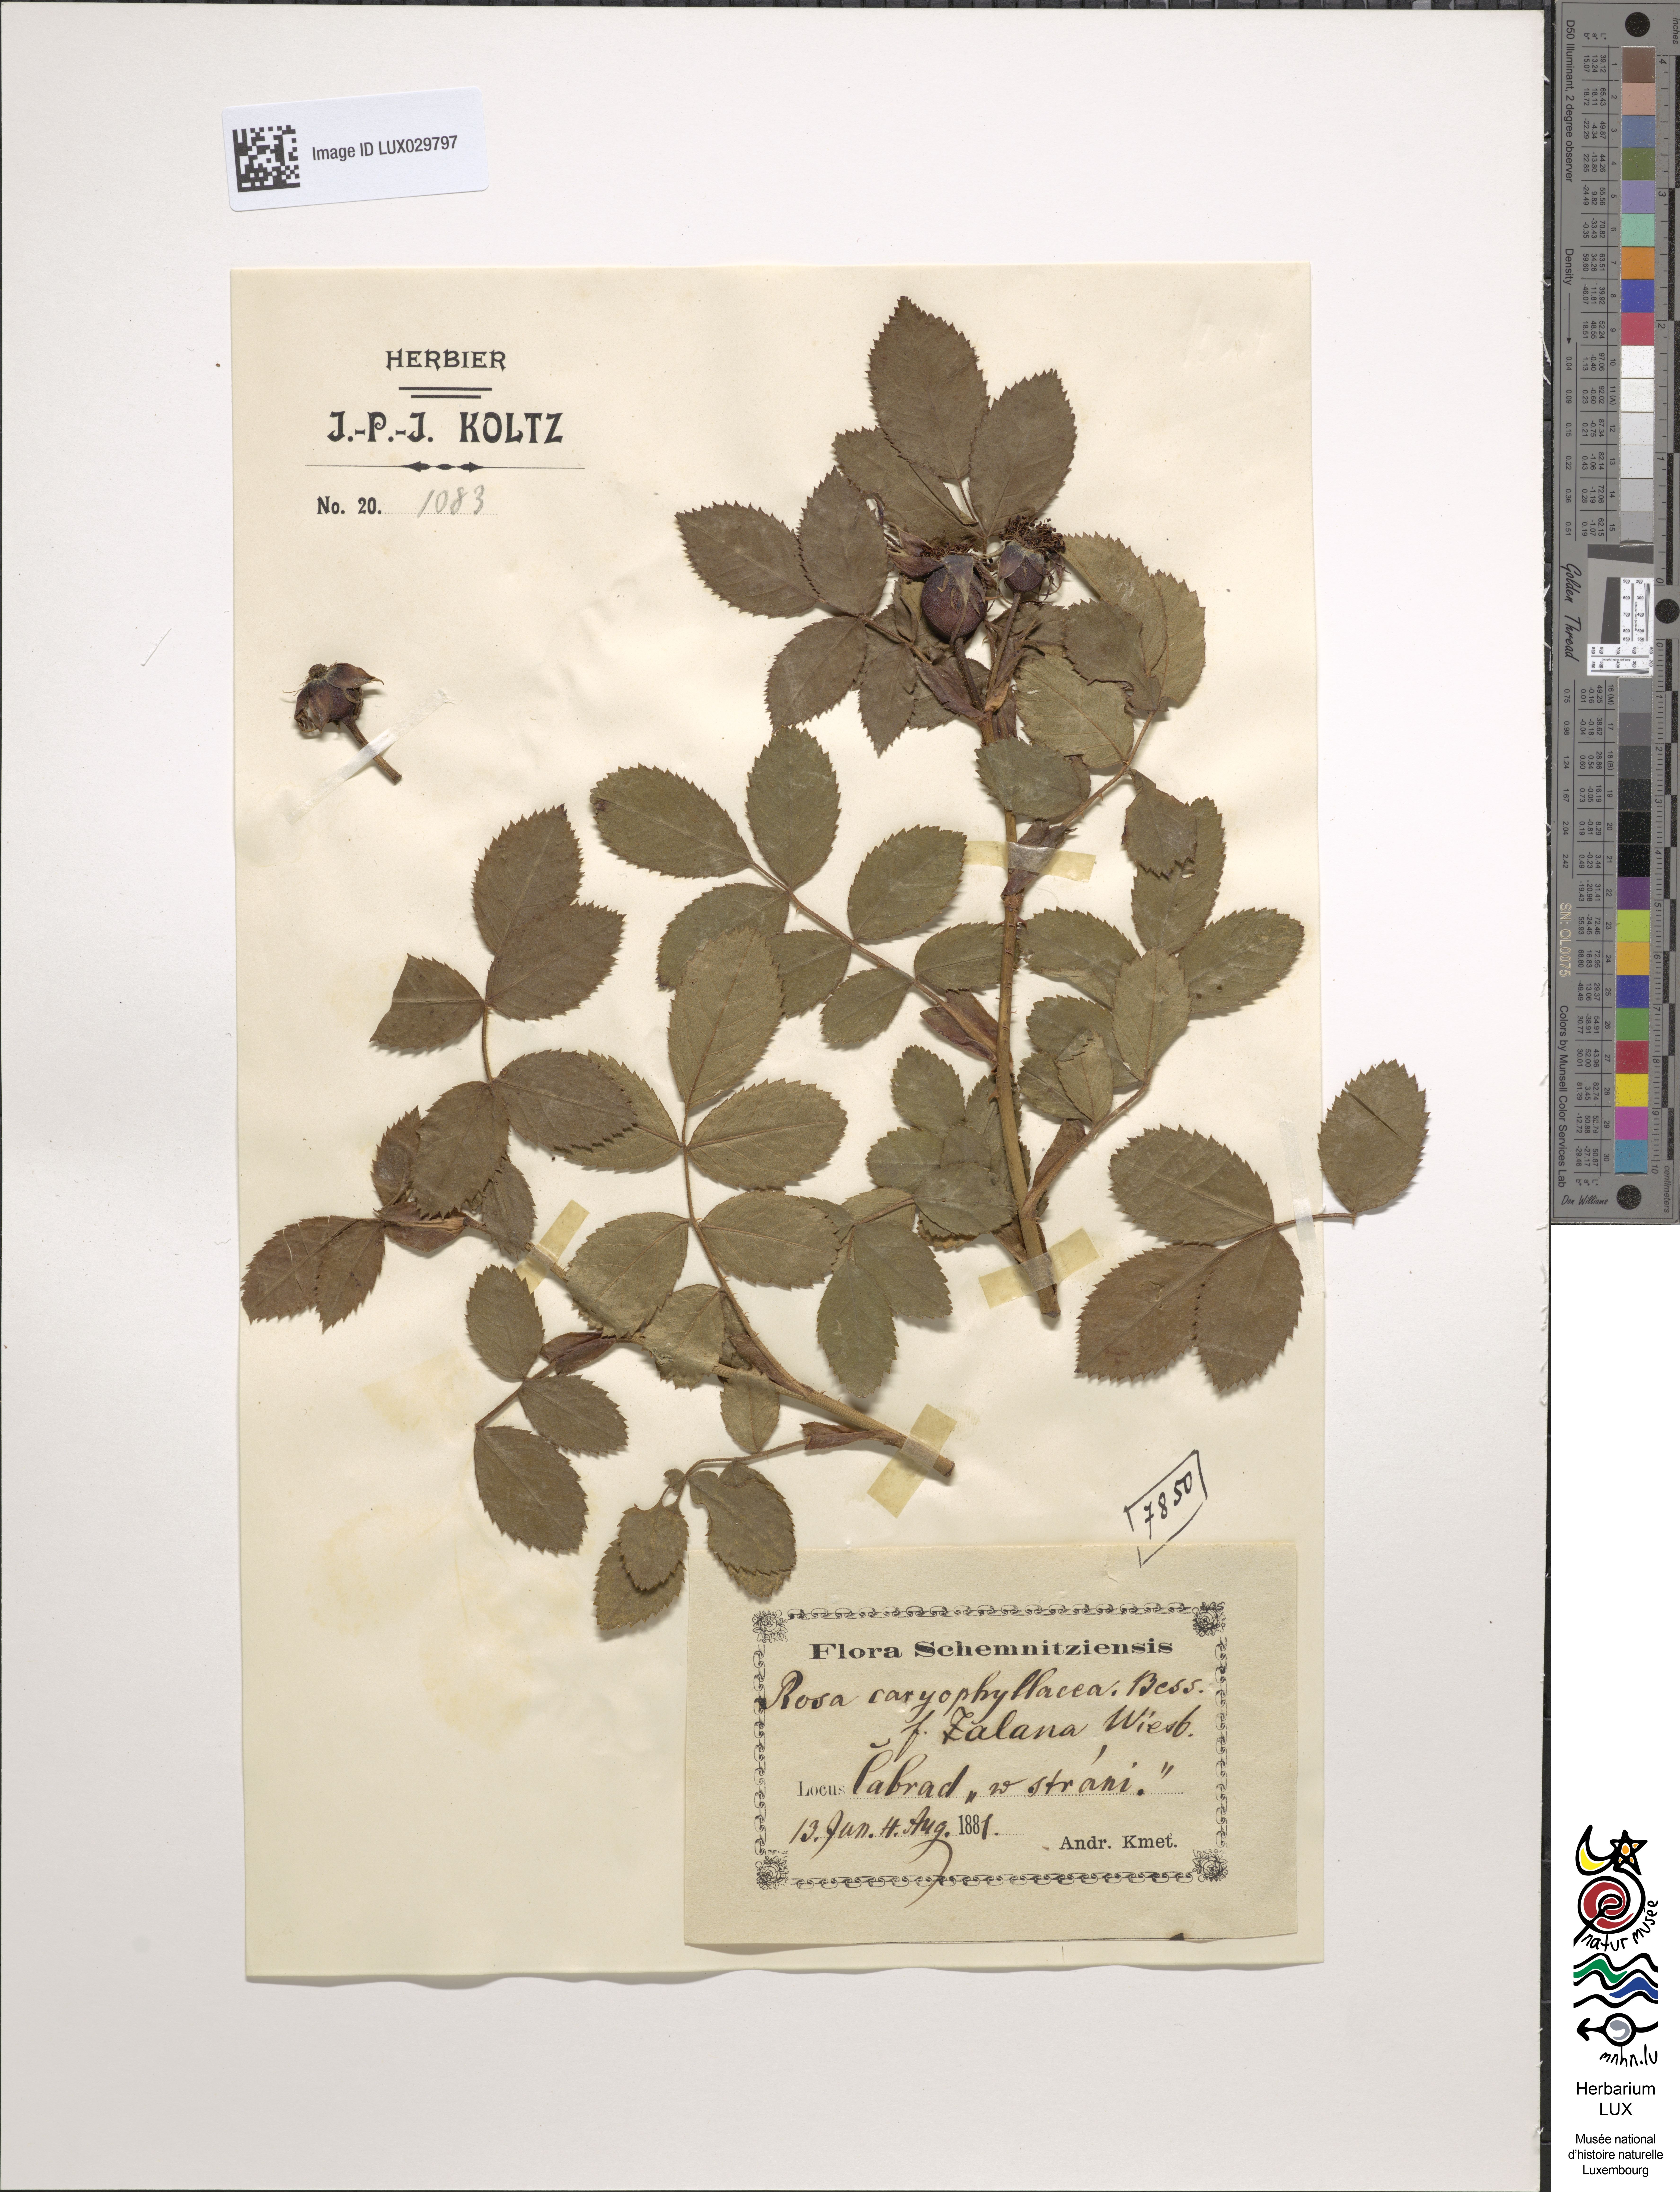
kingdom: Plantae
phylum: Tracheophyta
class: Magnoliopsida
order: Rosales
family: Rosaceae
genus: Rosa
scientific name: Rosa caryophyllacea
